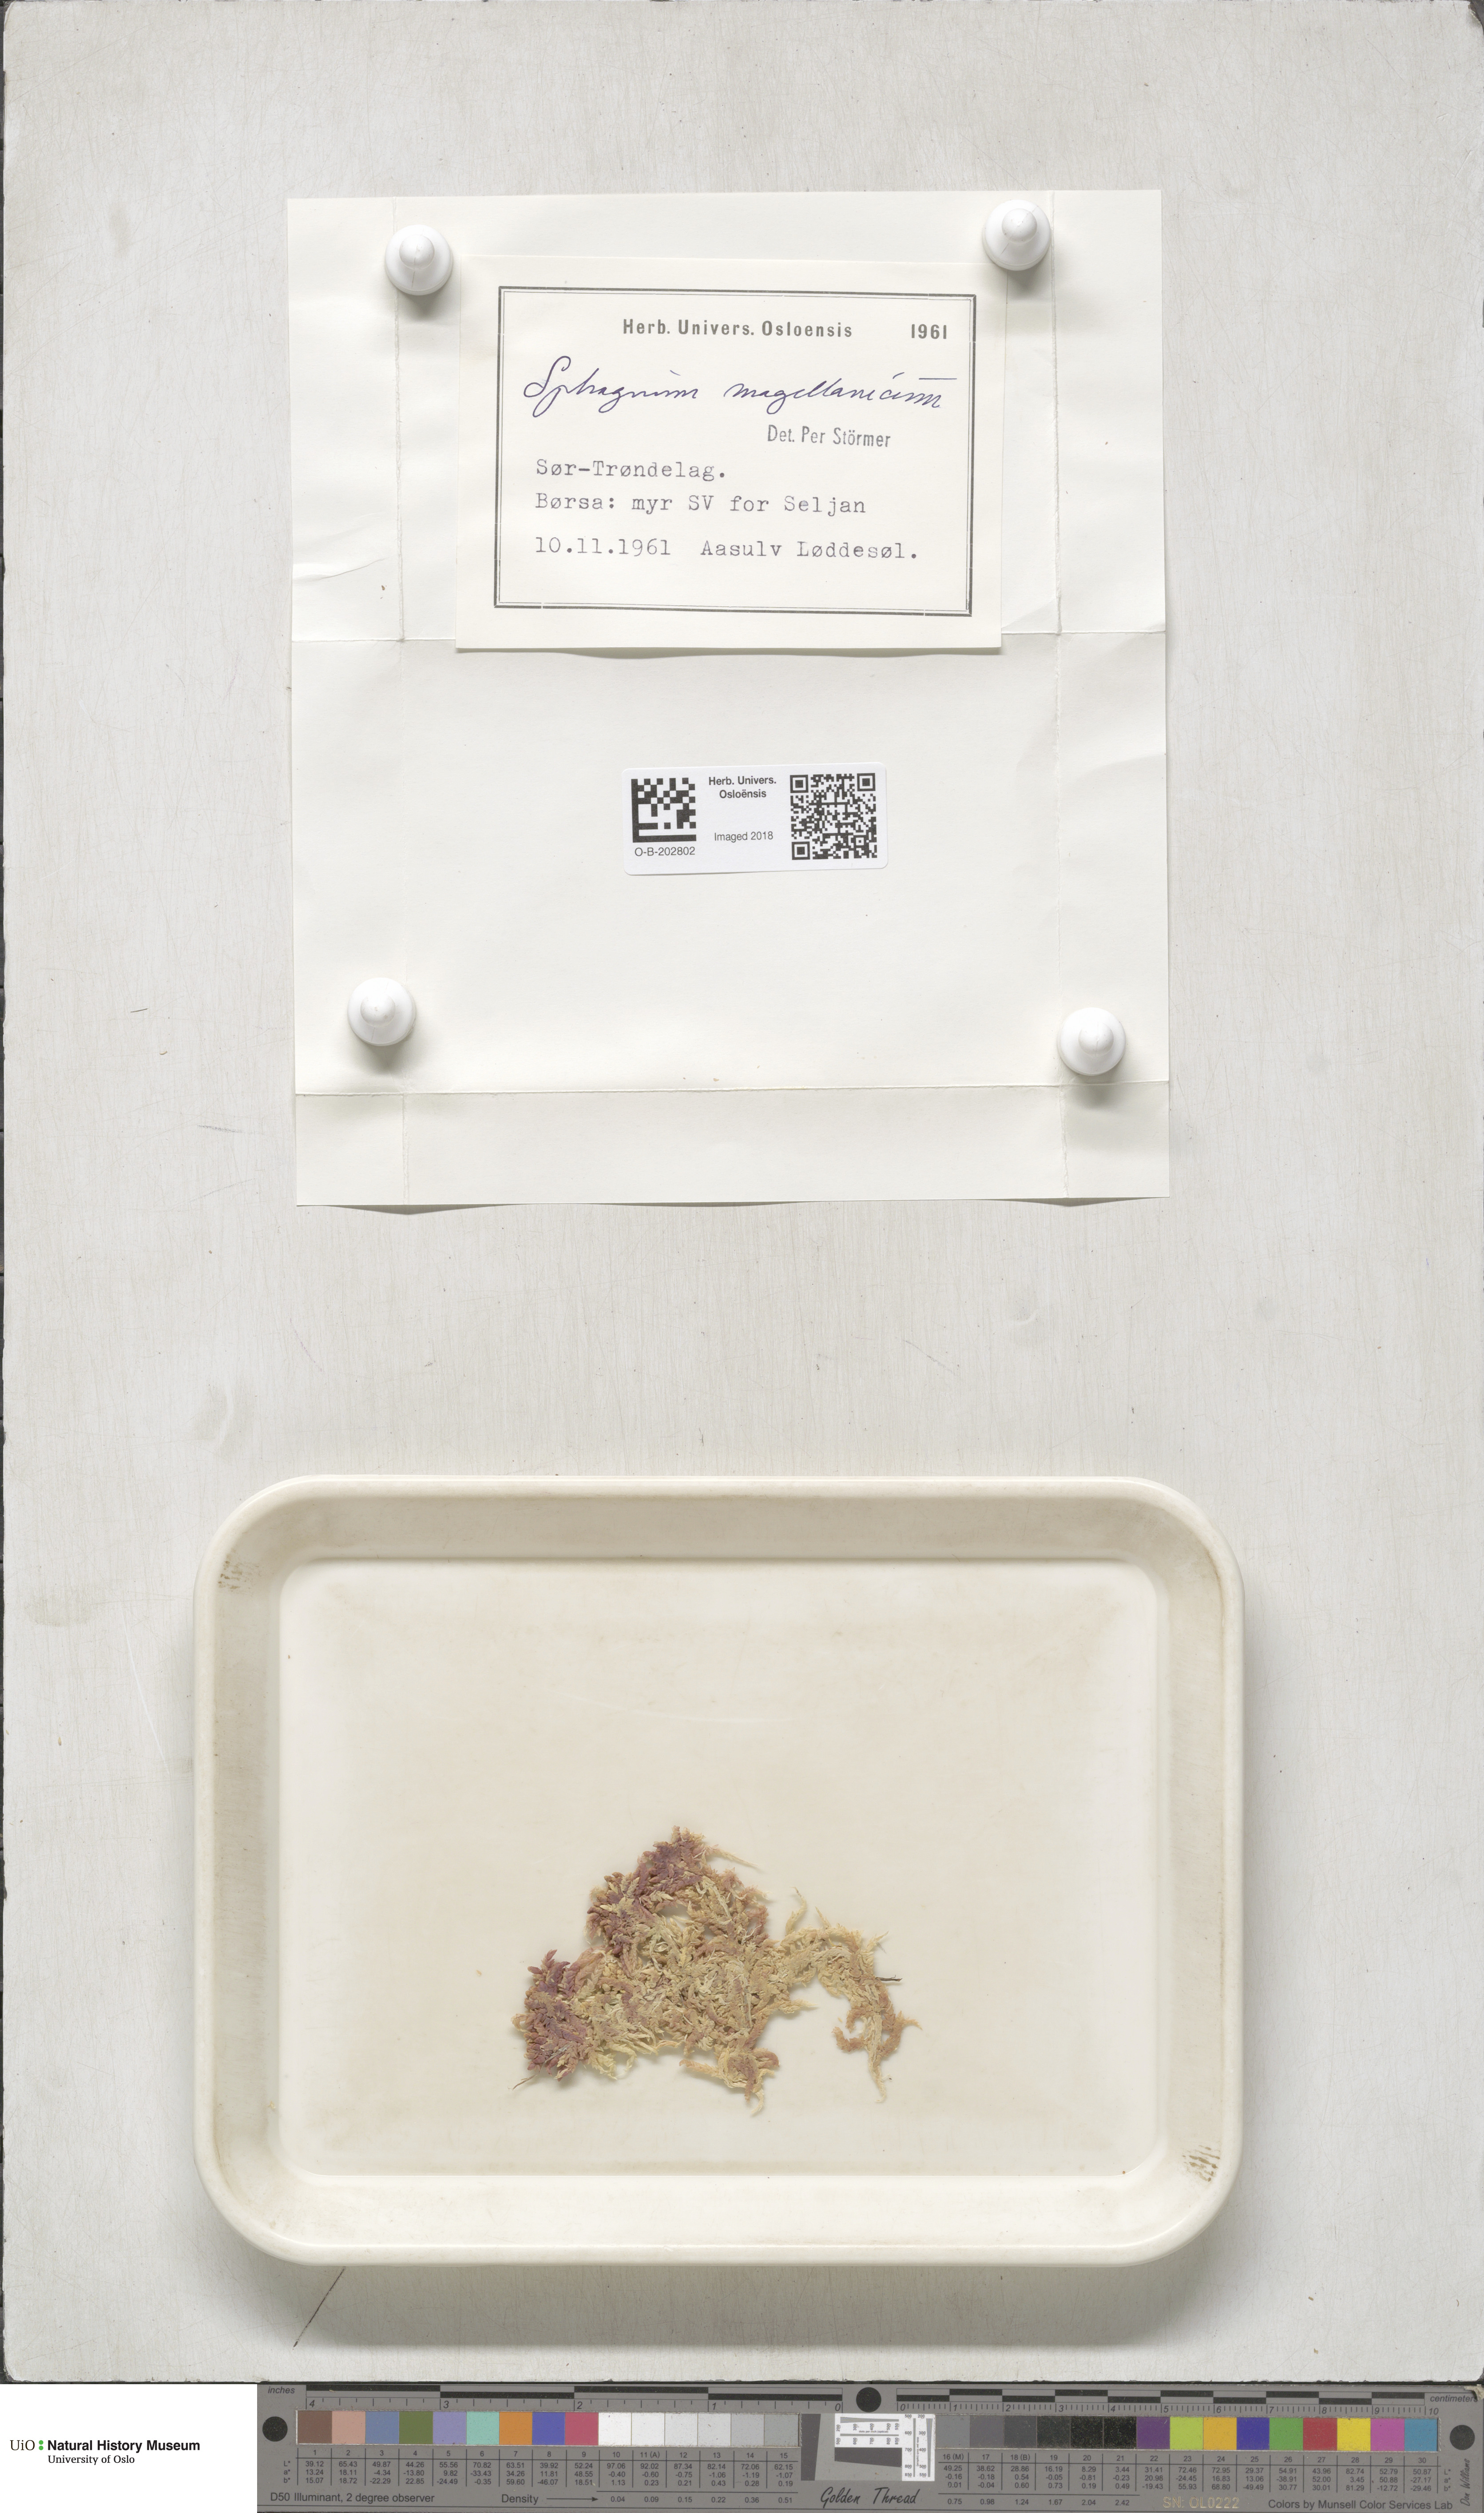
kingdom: Plantae
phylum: Bryophyta
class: Sphagnopsida
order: Sphagnales
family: Sphagnaceae
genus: Sphagnum
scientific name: Sphagnum magellanicum
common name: Magellan's peat moss
